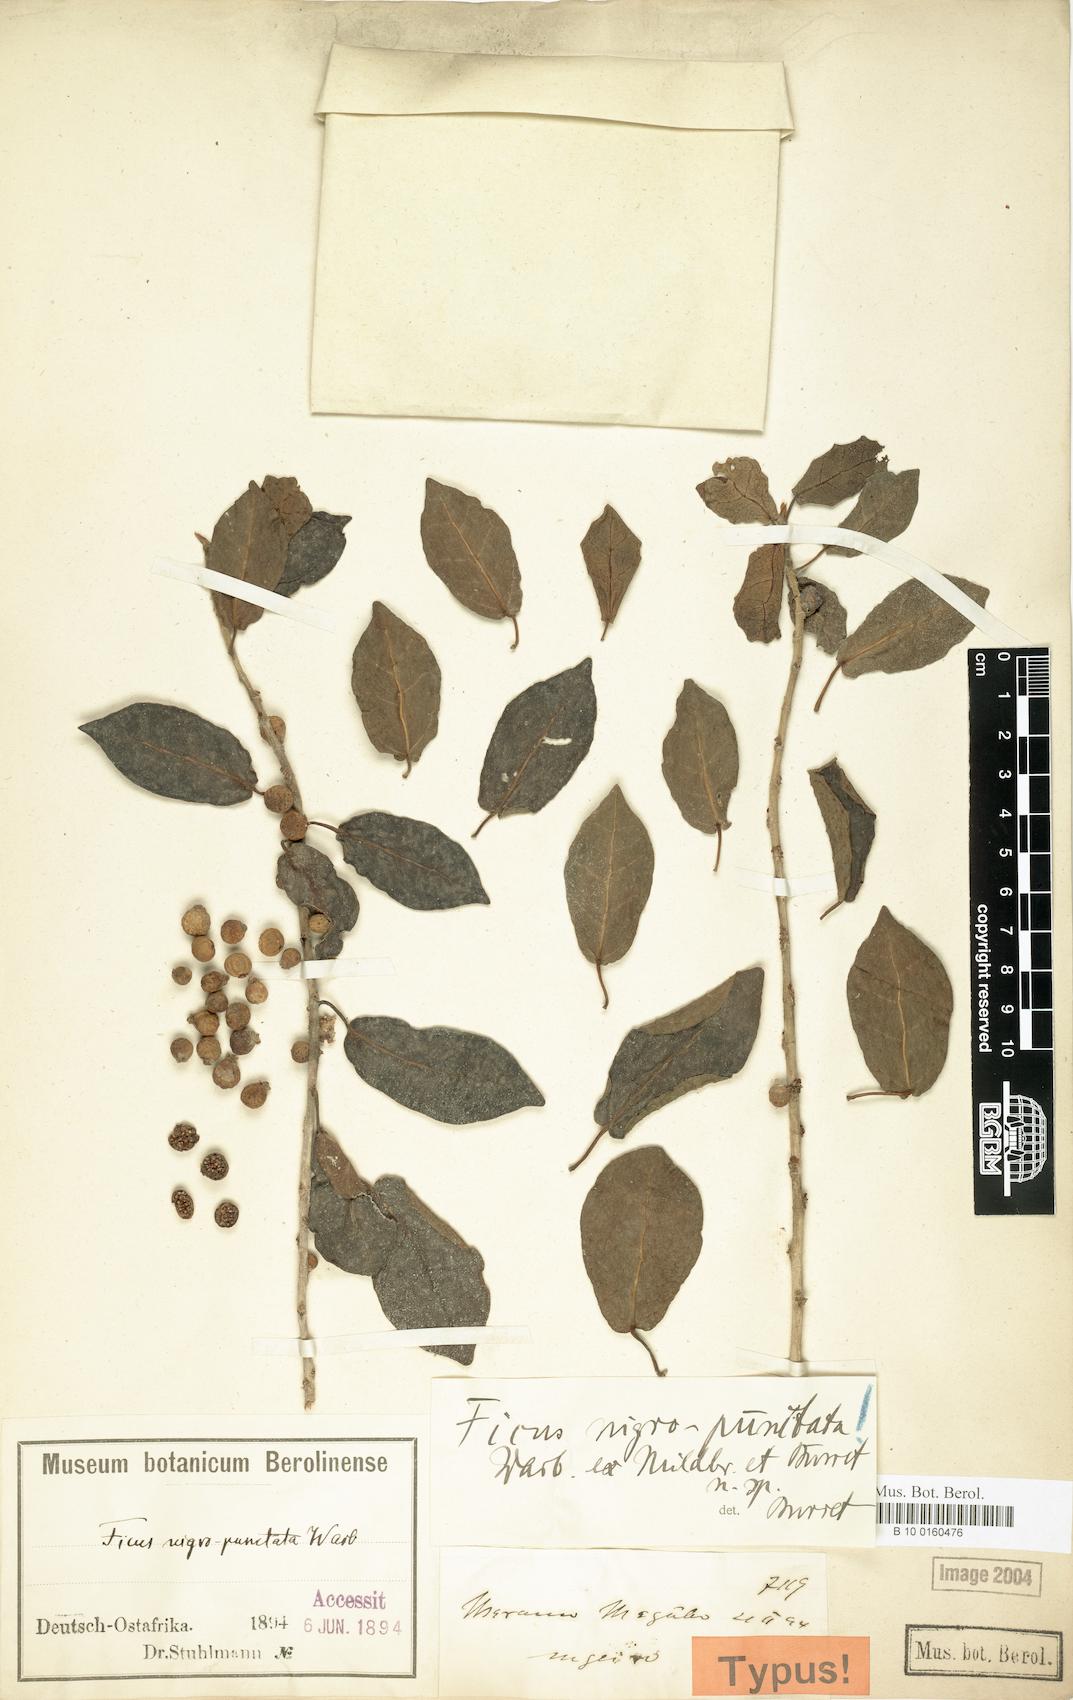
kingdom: Plantae
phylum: Tracheophyta
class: Magnoliopsida
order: Rosales
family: Moraceae
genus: Ficus
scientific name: Ficus nigropunctata
